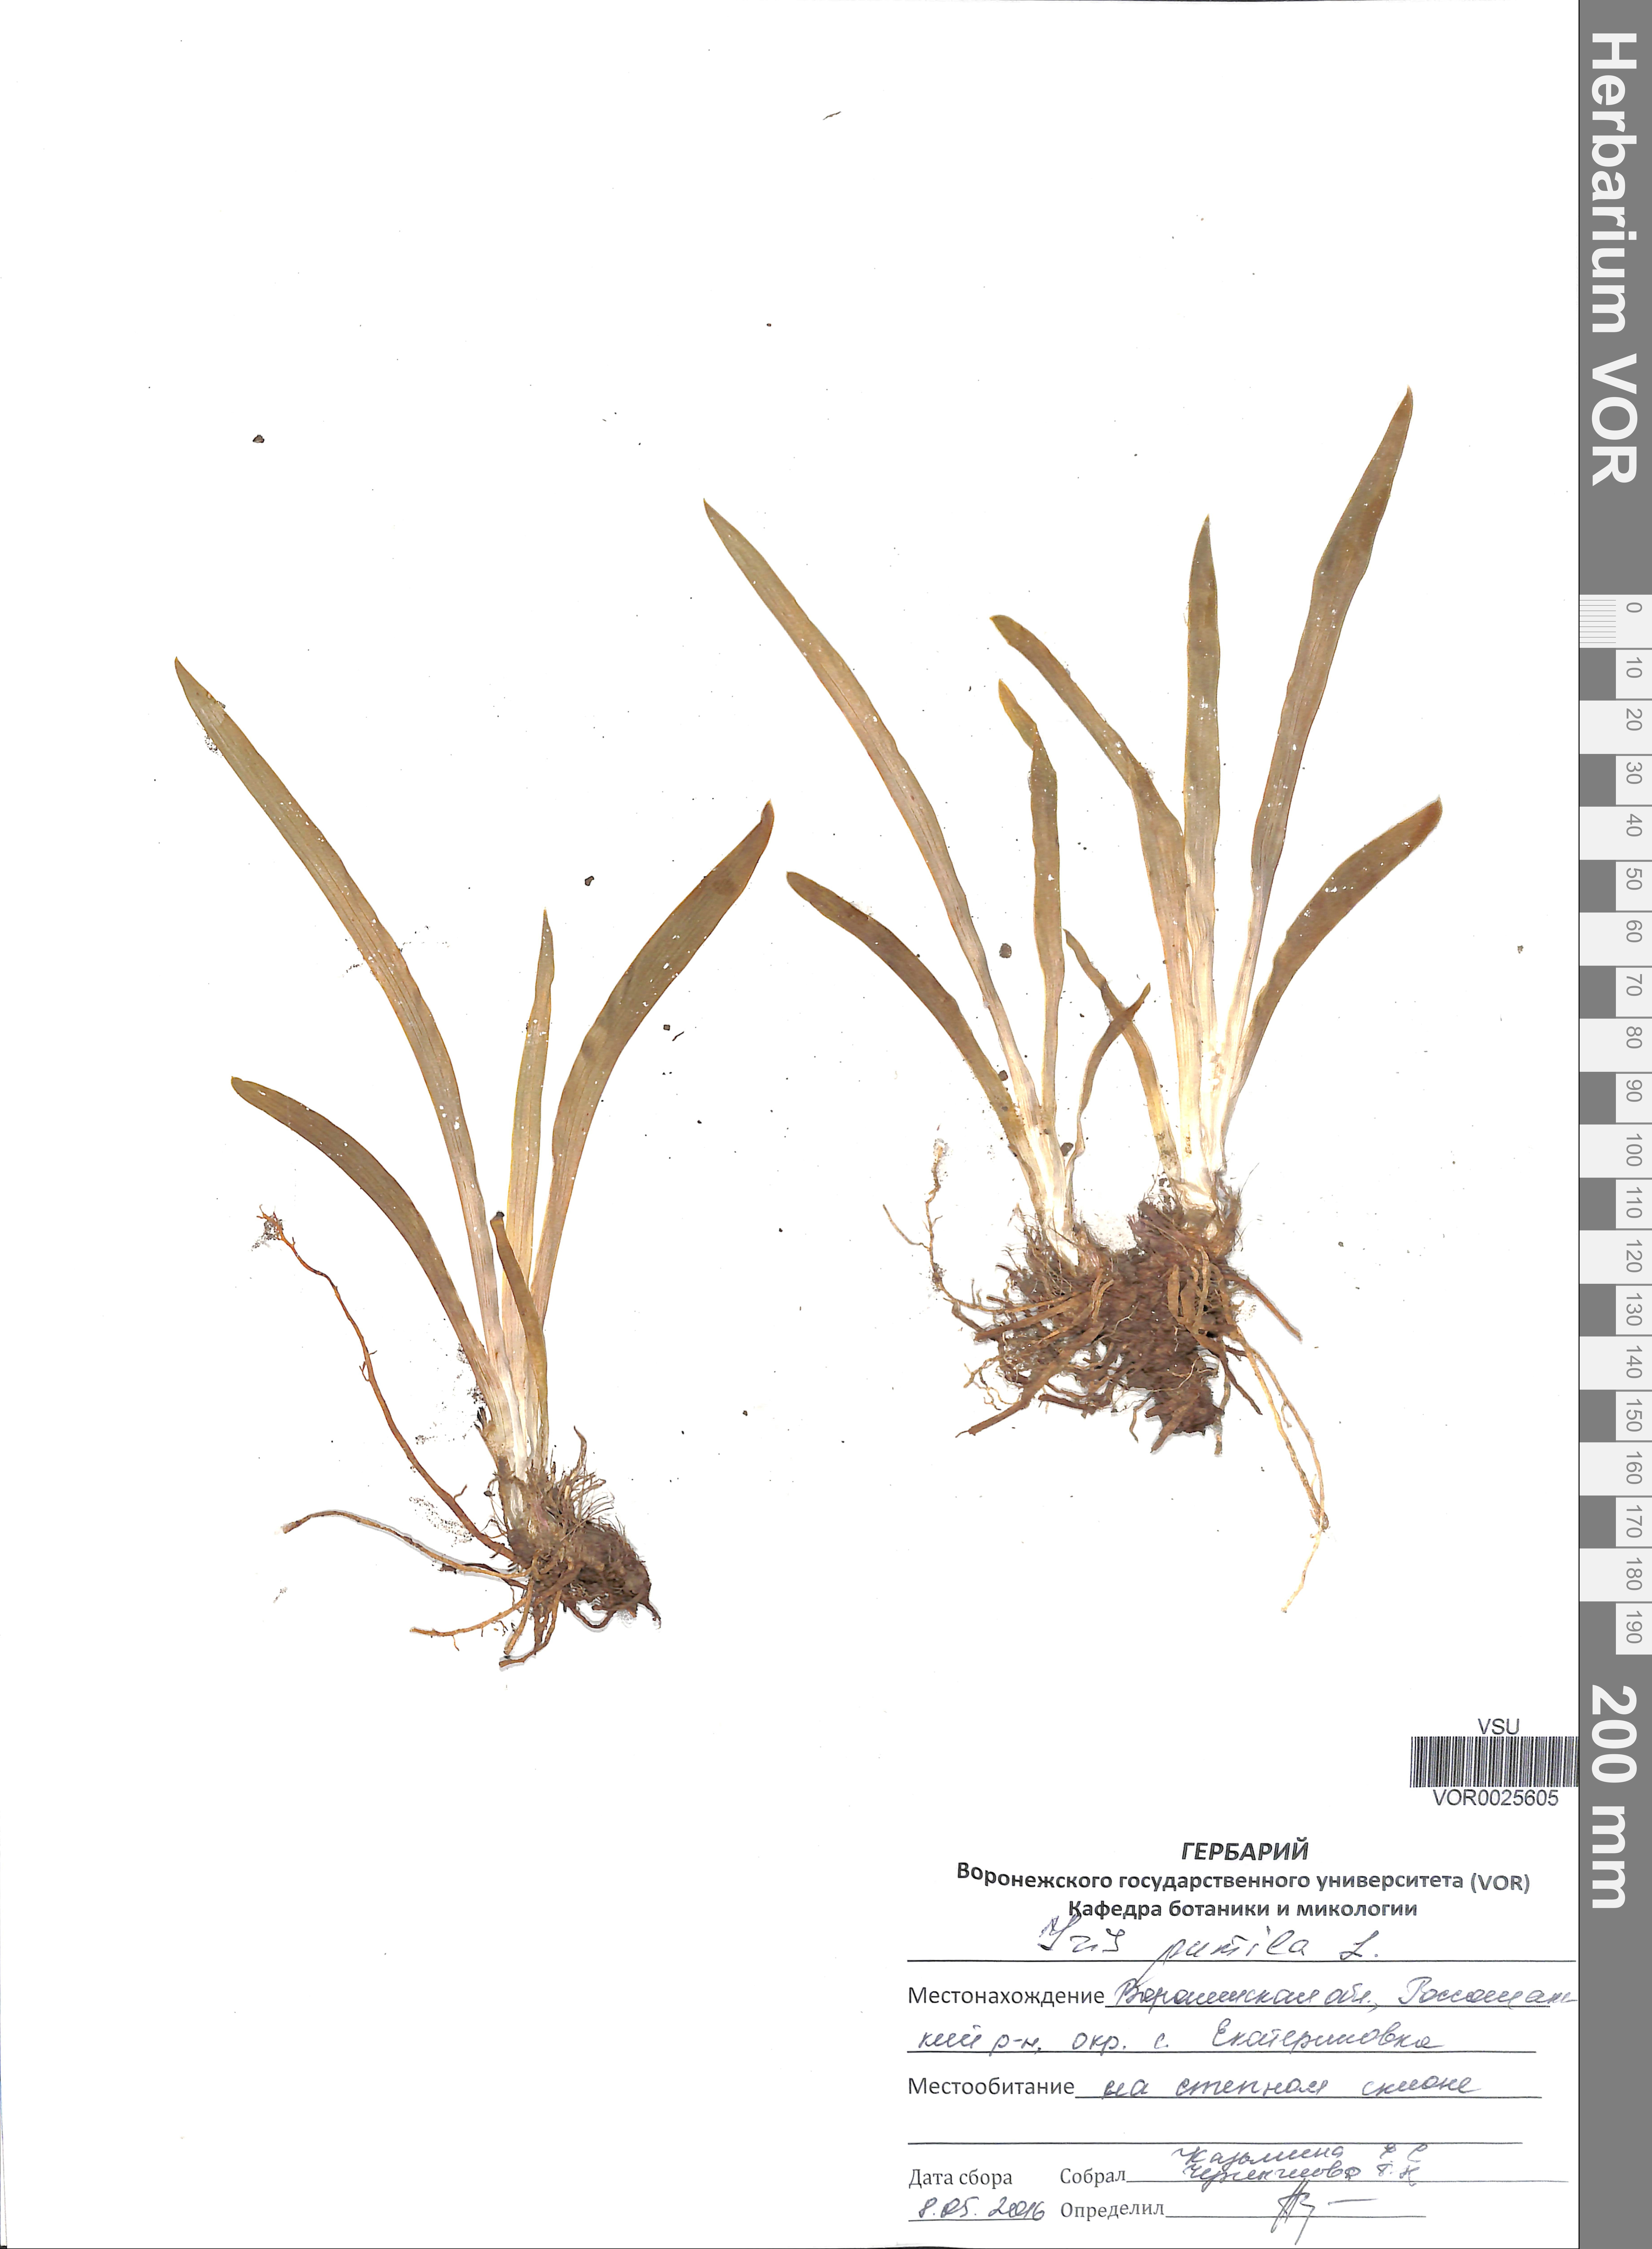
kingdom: Plantae
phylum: Tracheophyta
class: Liliopsida
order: Asparagales
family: Iridaceae
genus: Iris
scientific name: Iris pumila
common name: Dwarf iris
